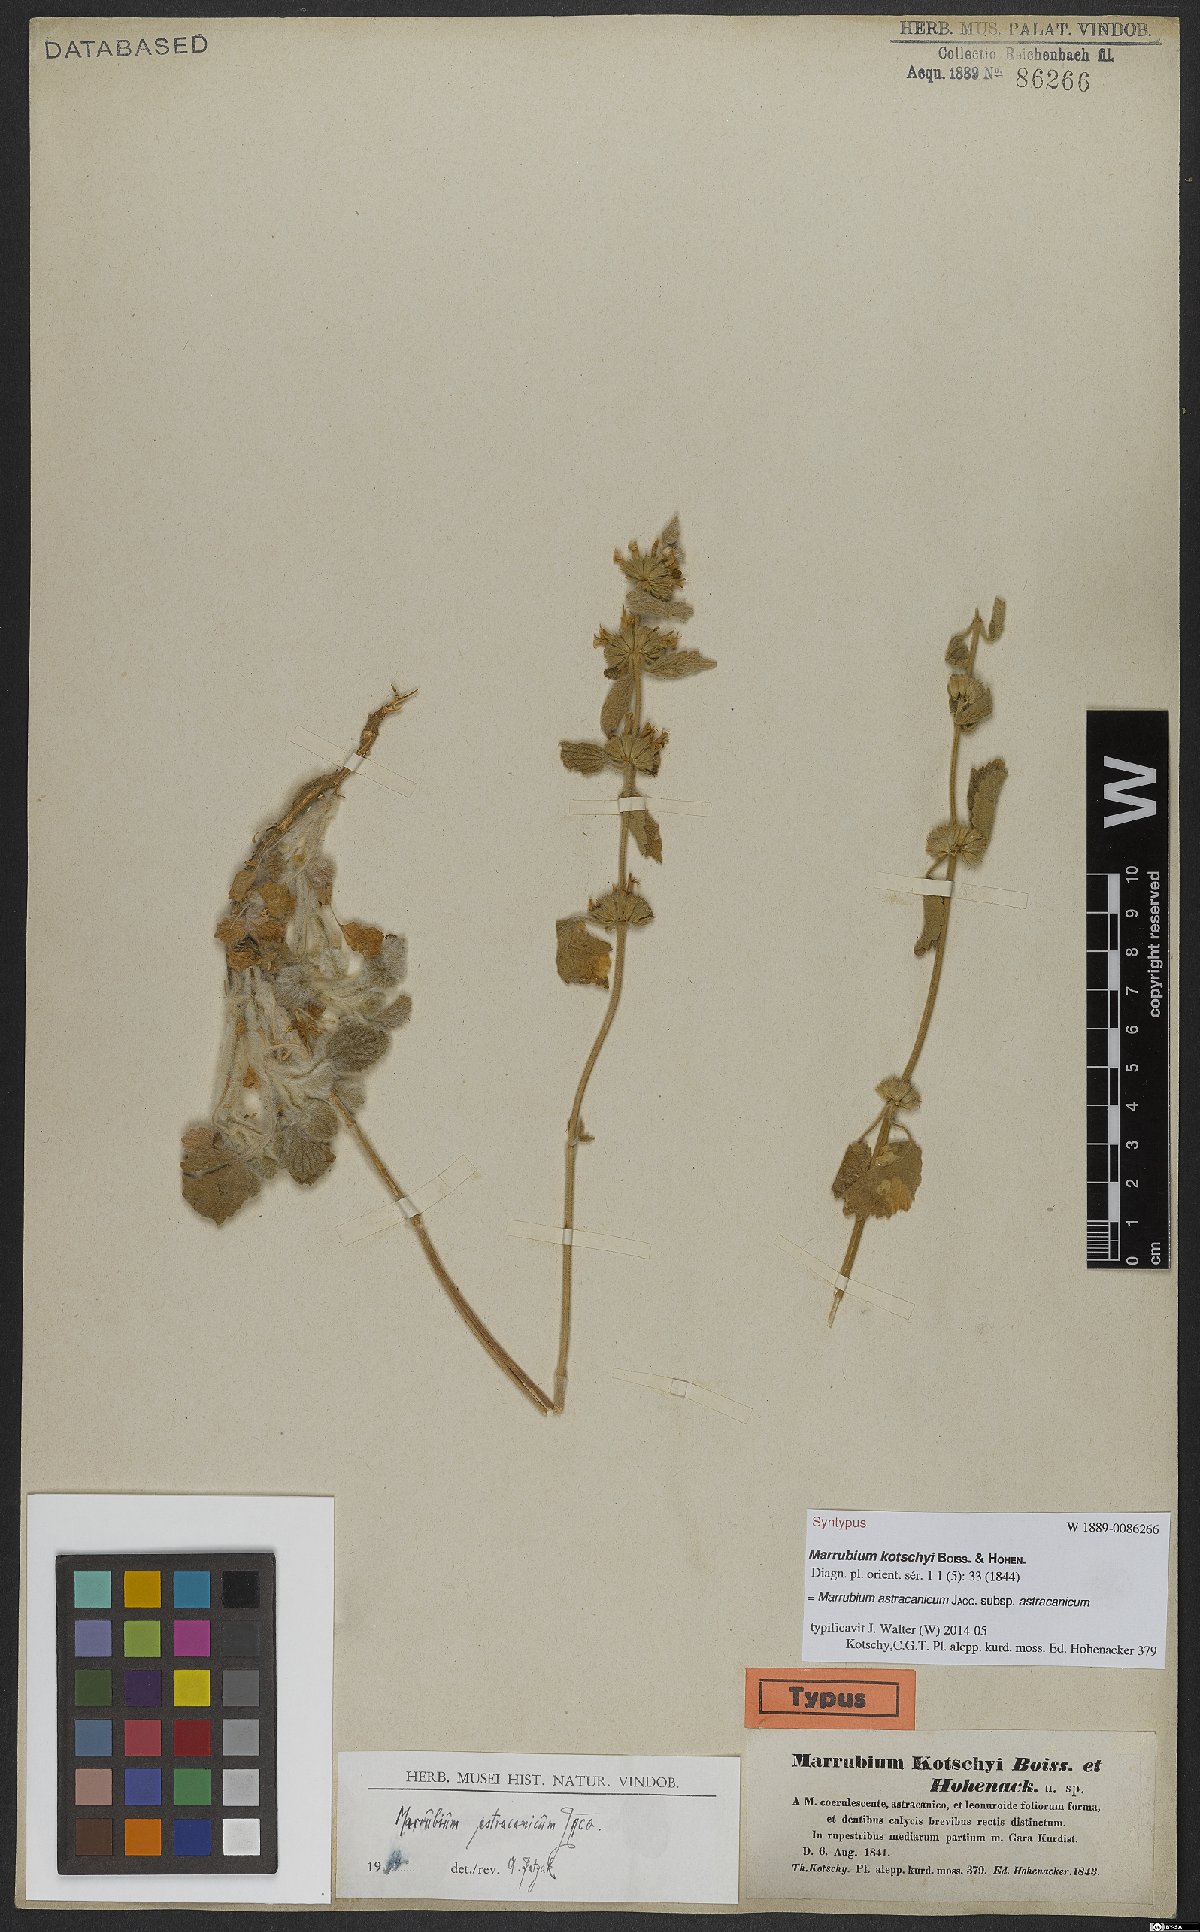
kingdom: Plantae
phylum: Tracheophyta
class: Magnoliopsida
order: Lamiales
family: Lamiaceae
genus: Marrubium
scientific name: Marrubium astracanicum
